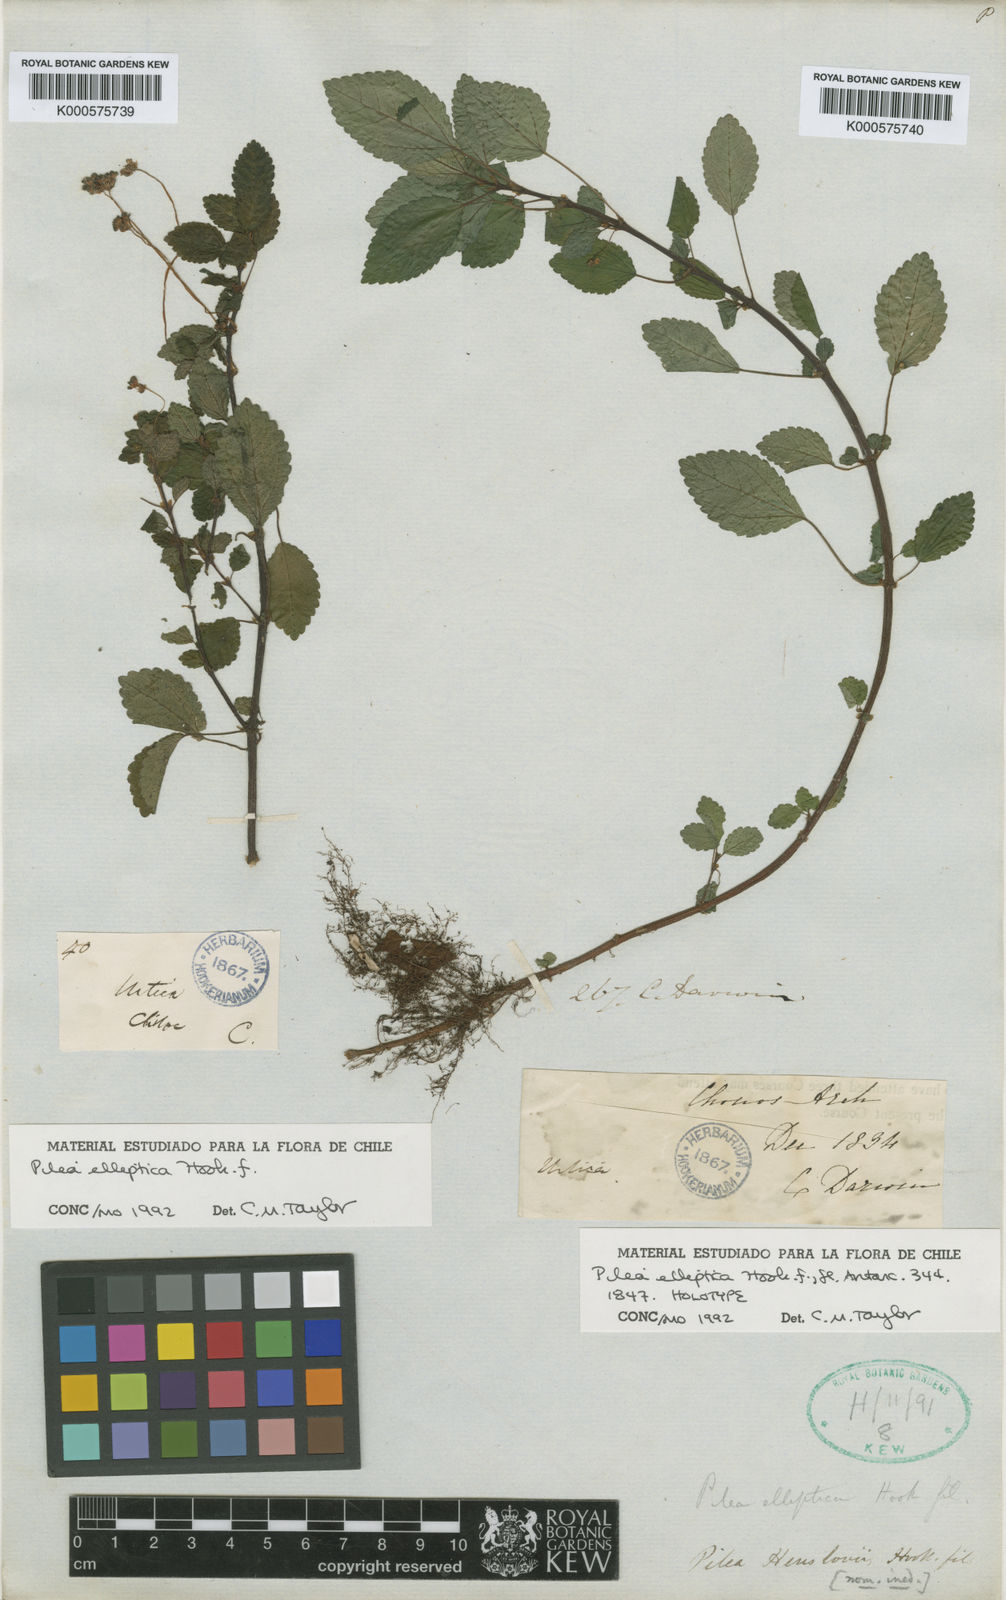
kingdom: Plantae
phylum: Tracheophyta
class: Magnoliopsida
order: Rosales
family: Urticaceae
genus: Pilea
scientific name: Pilea elliptica
